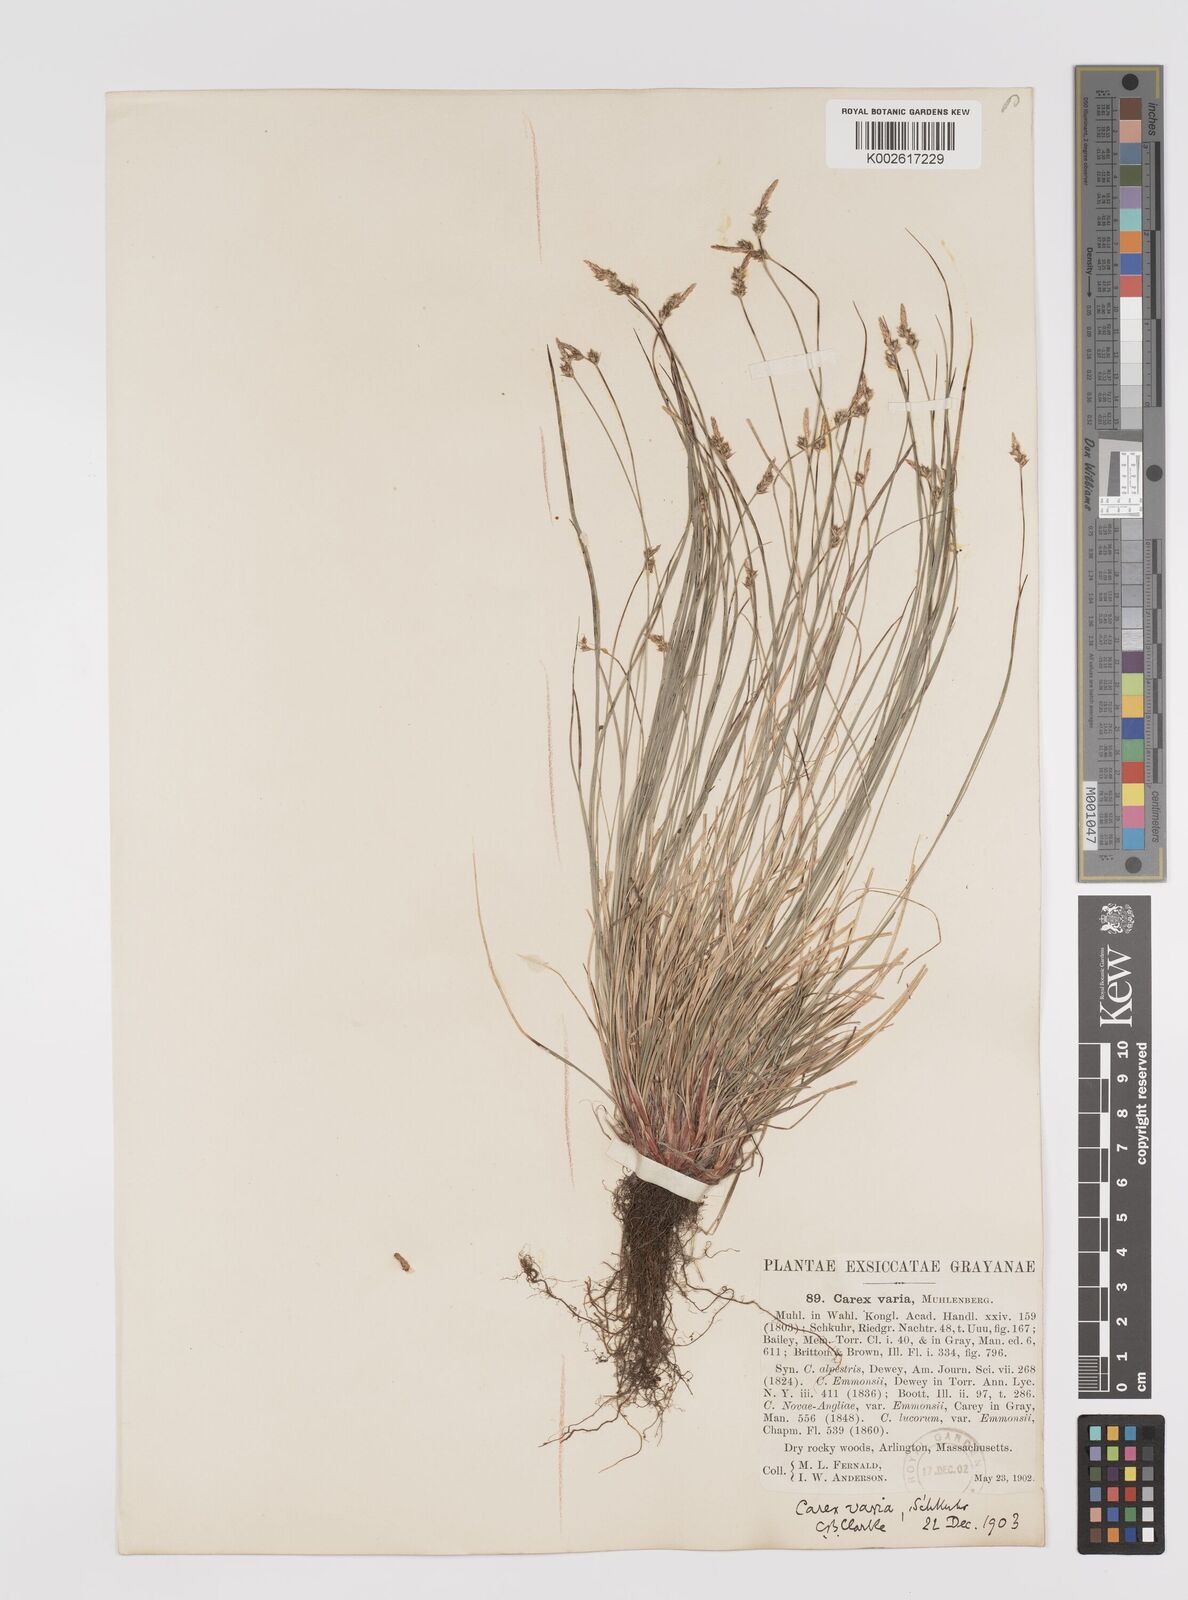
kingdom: Plantae
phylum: Tracheophyta
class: Liliopsida
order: Poales
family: Cyperaceae
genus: Carex
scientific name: Carex albicans
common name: Bellow-beaked sedge
